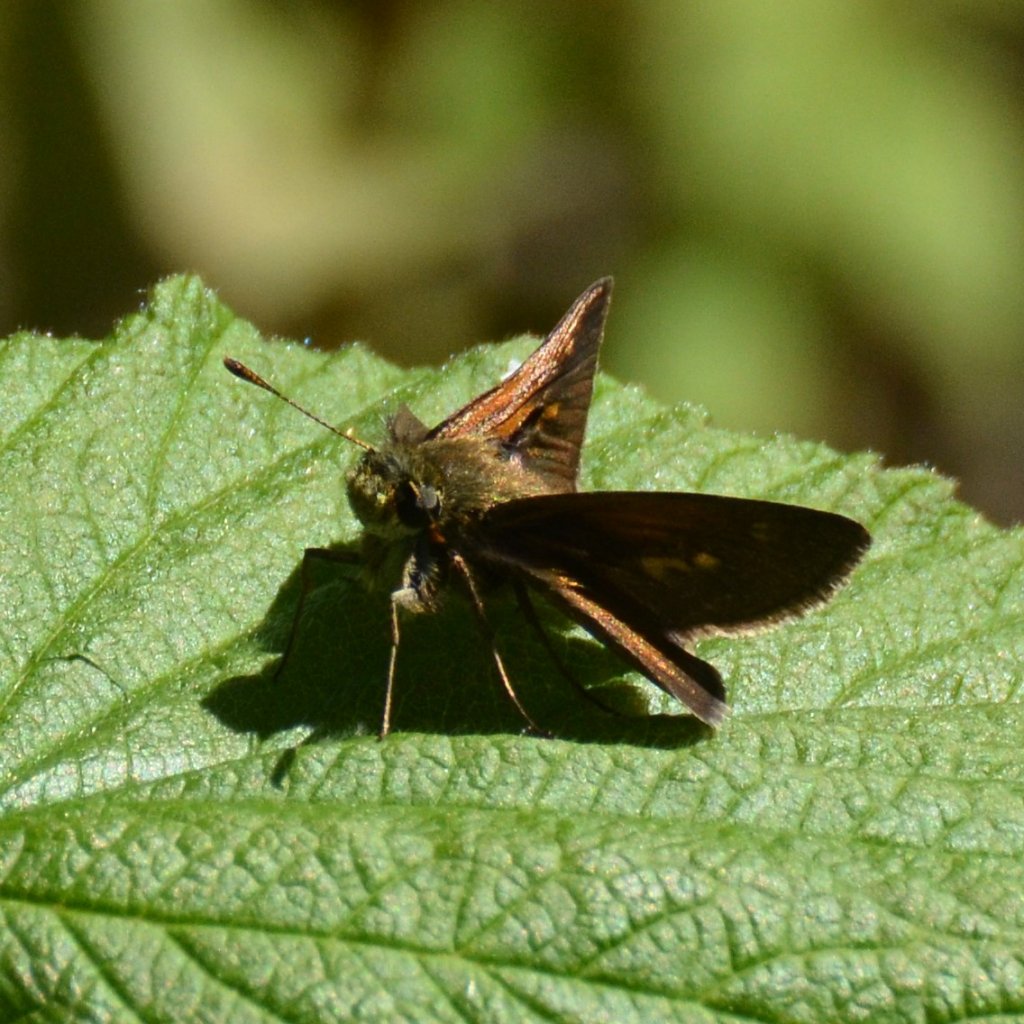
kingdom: Animalia
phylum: Arthropoda
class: Insecta
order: Lepidoptera
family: Hesperiidae
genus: Polites
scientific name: Polites themistocles
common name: Tawny-edged Skipper
